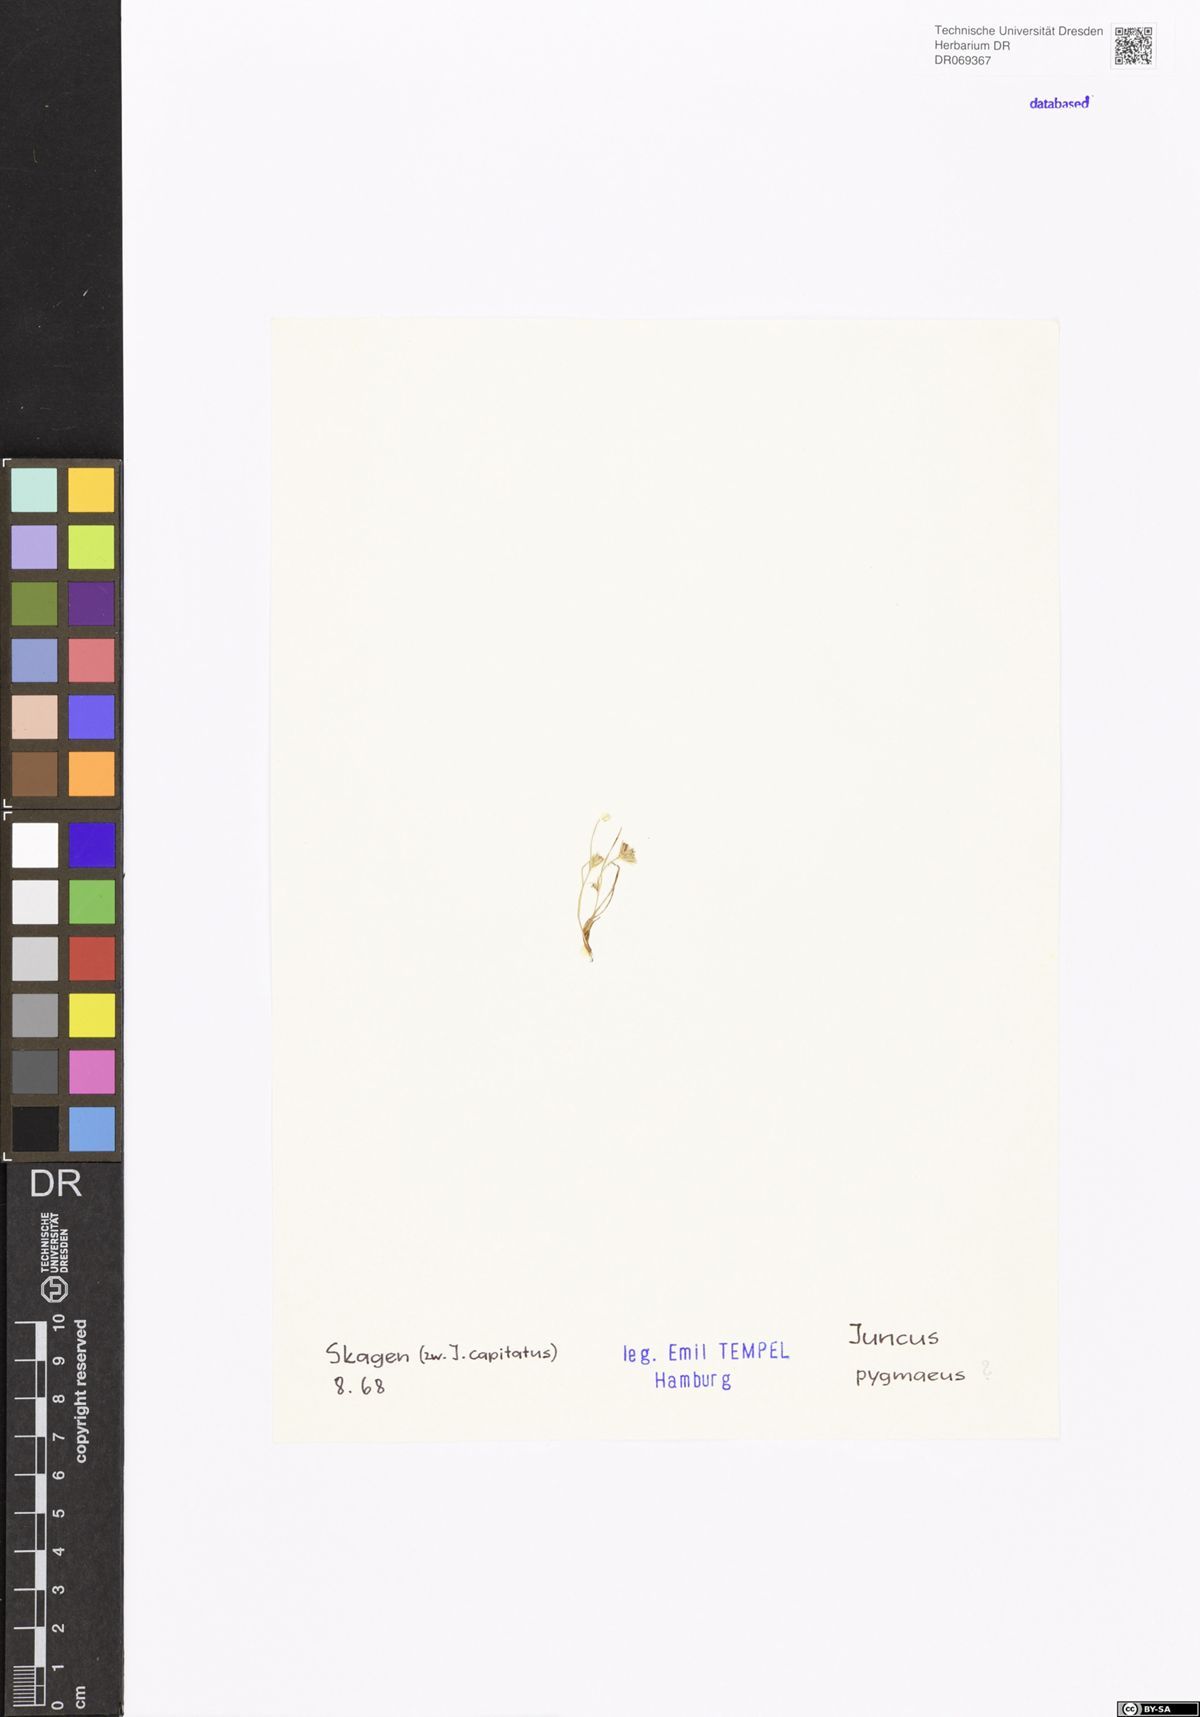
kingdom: Plantae
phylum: Tracheophyta
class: Liliopsida
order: Poales
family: Juncaceae
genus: Juncus
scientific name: Juncus pygmaeus
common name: Pigmy rush
